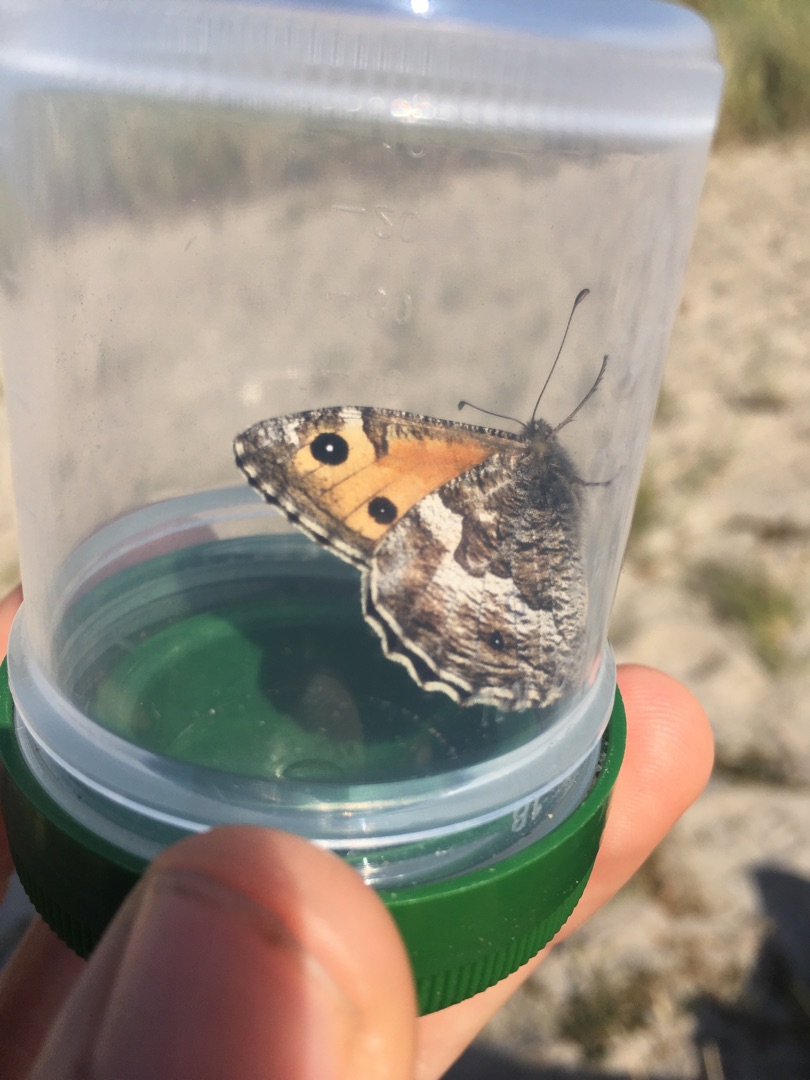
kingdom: Animalia
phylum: Arthropoda
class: Insecta
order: Lepidoptera
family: Nymphalidae
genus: Hipparchia
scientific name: Hipparchia semele
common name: Sandrandøje
